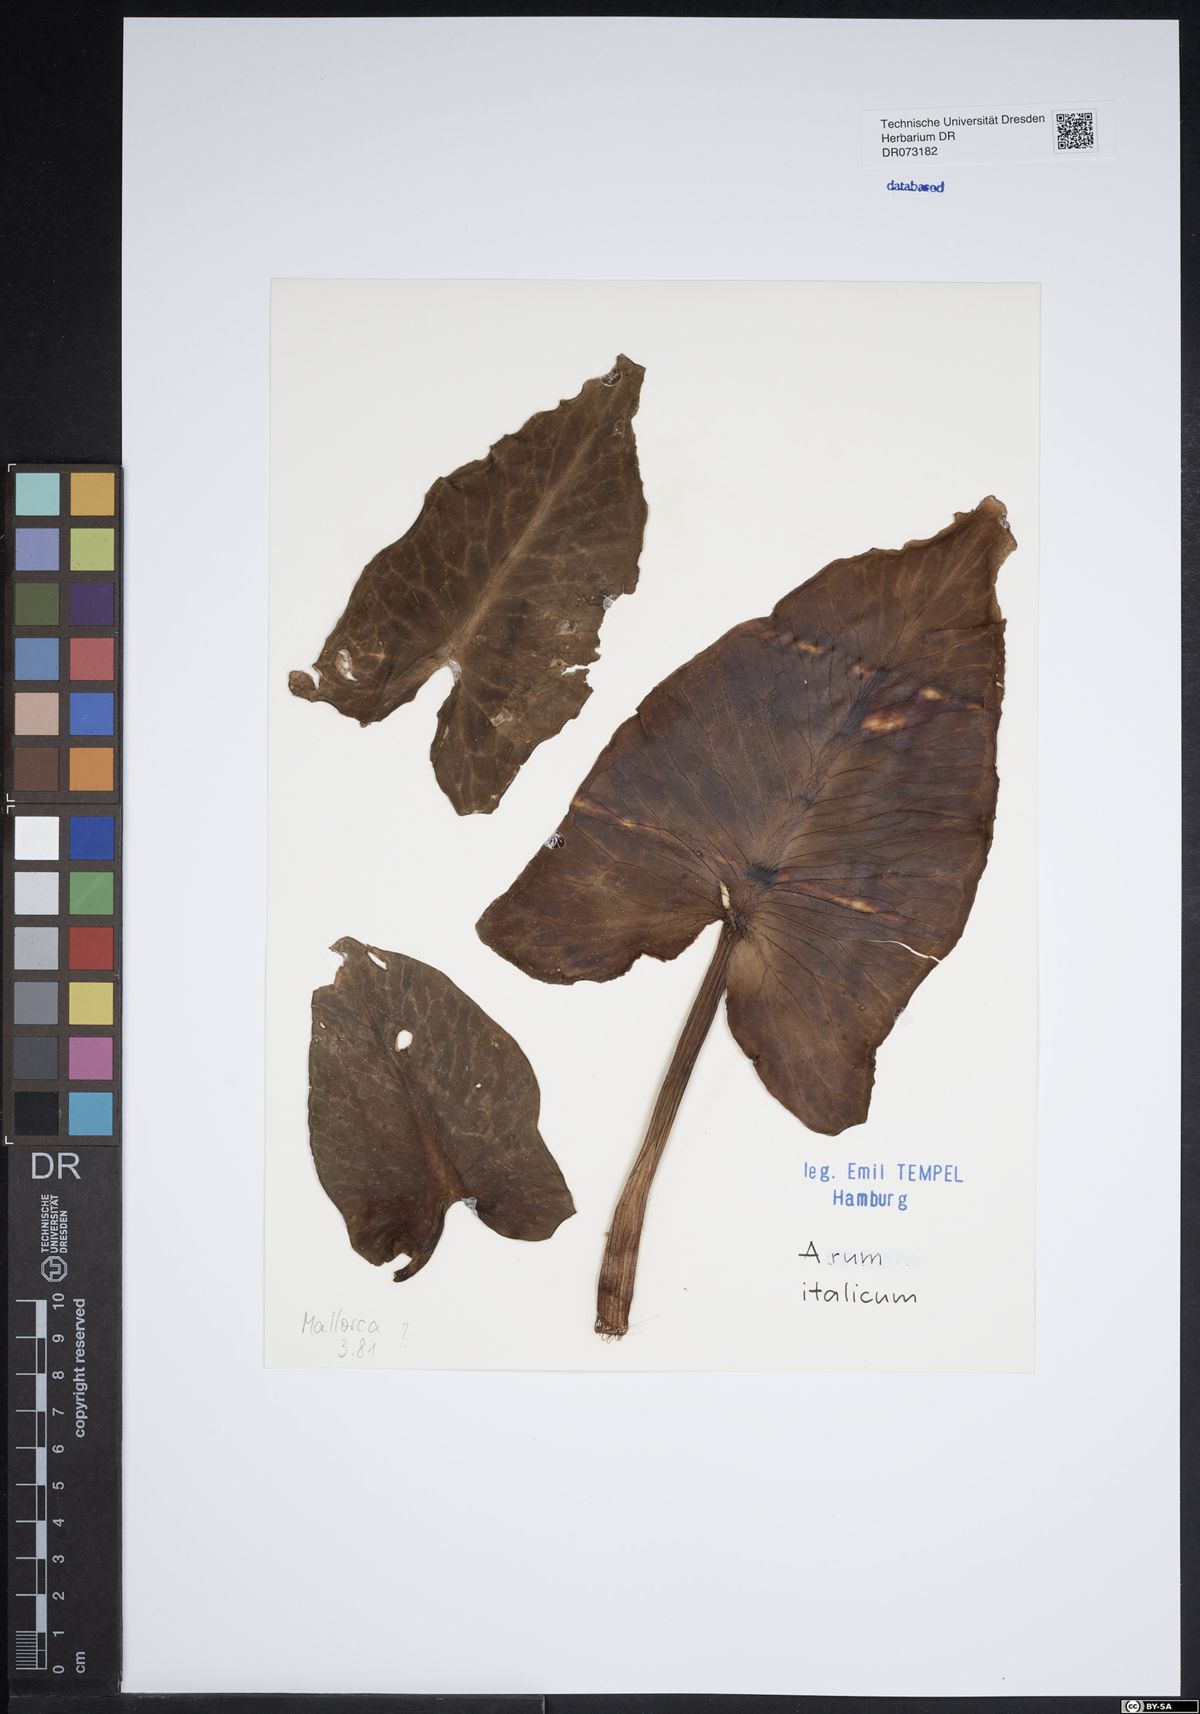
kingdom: Plantae
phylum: Tracheophyta
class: Liliopsida
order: Alismatales
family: Araceae
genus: Arum
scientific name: Arum italicum
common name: Italian lords-and-ladies
